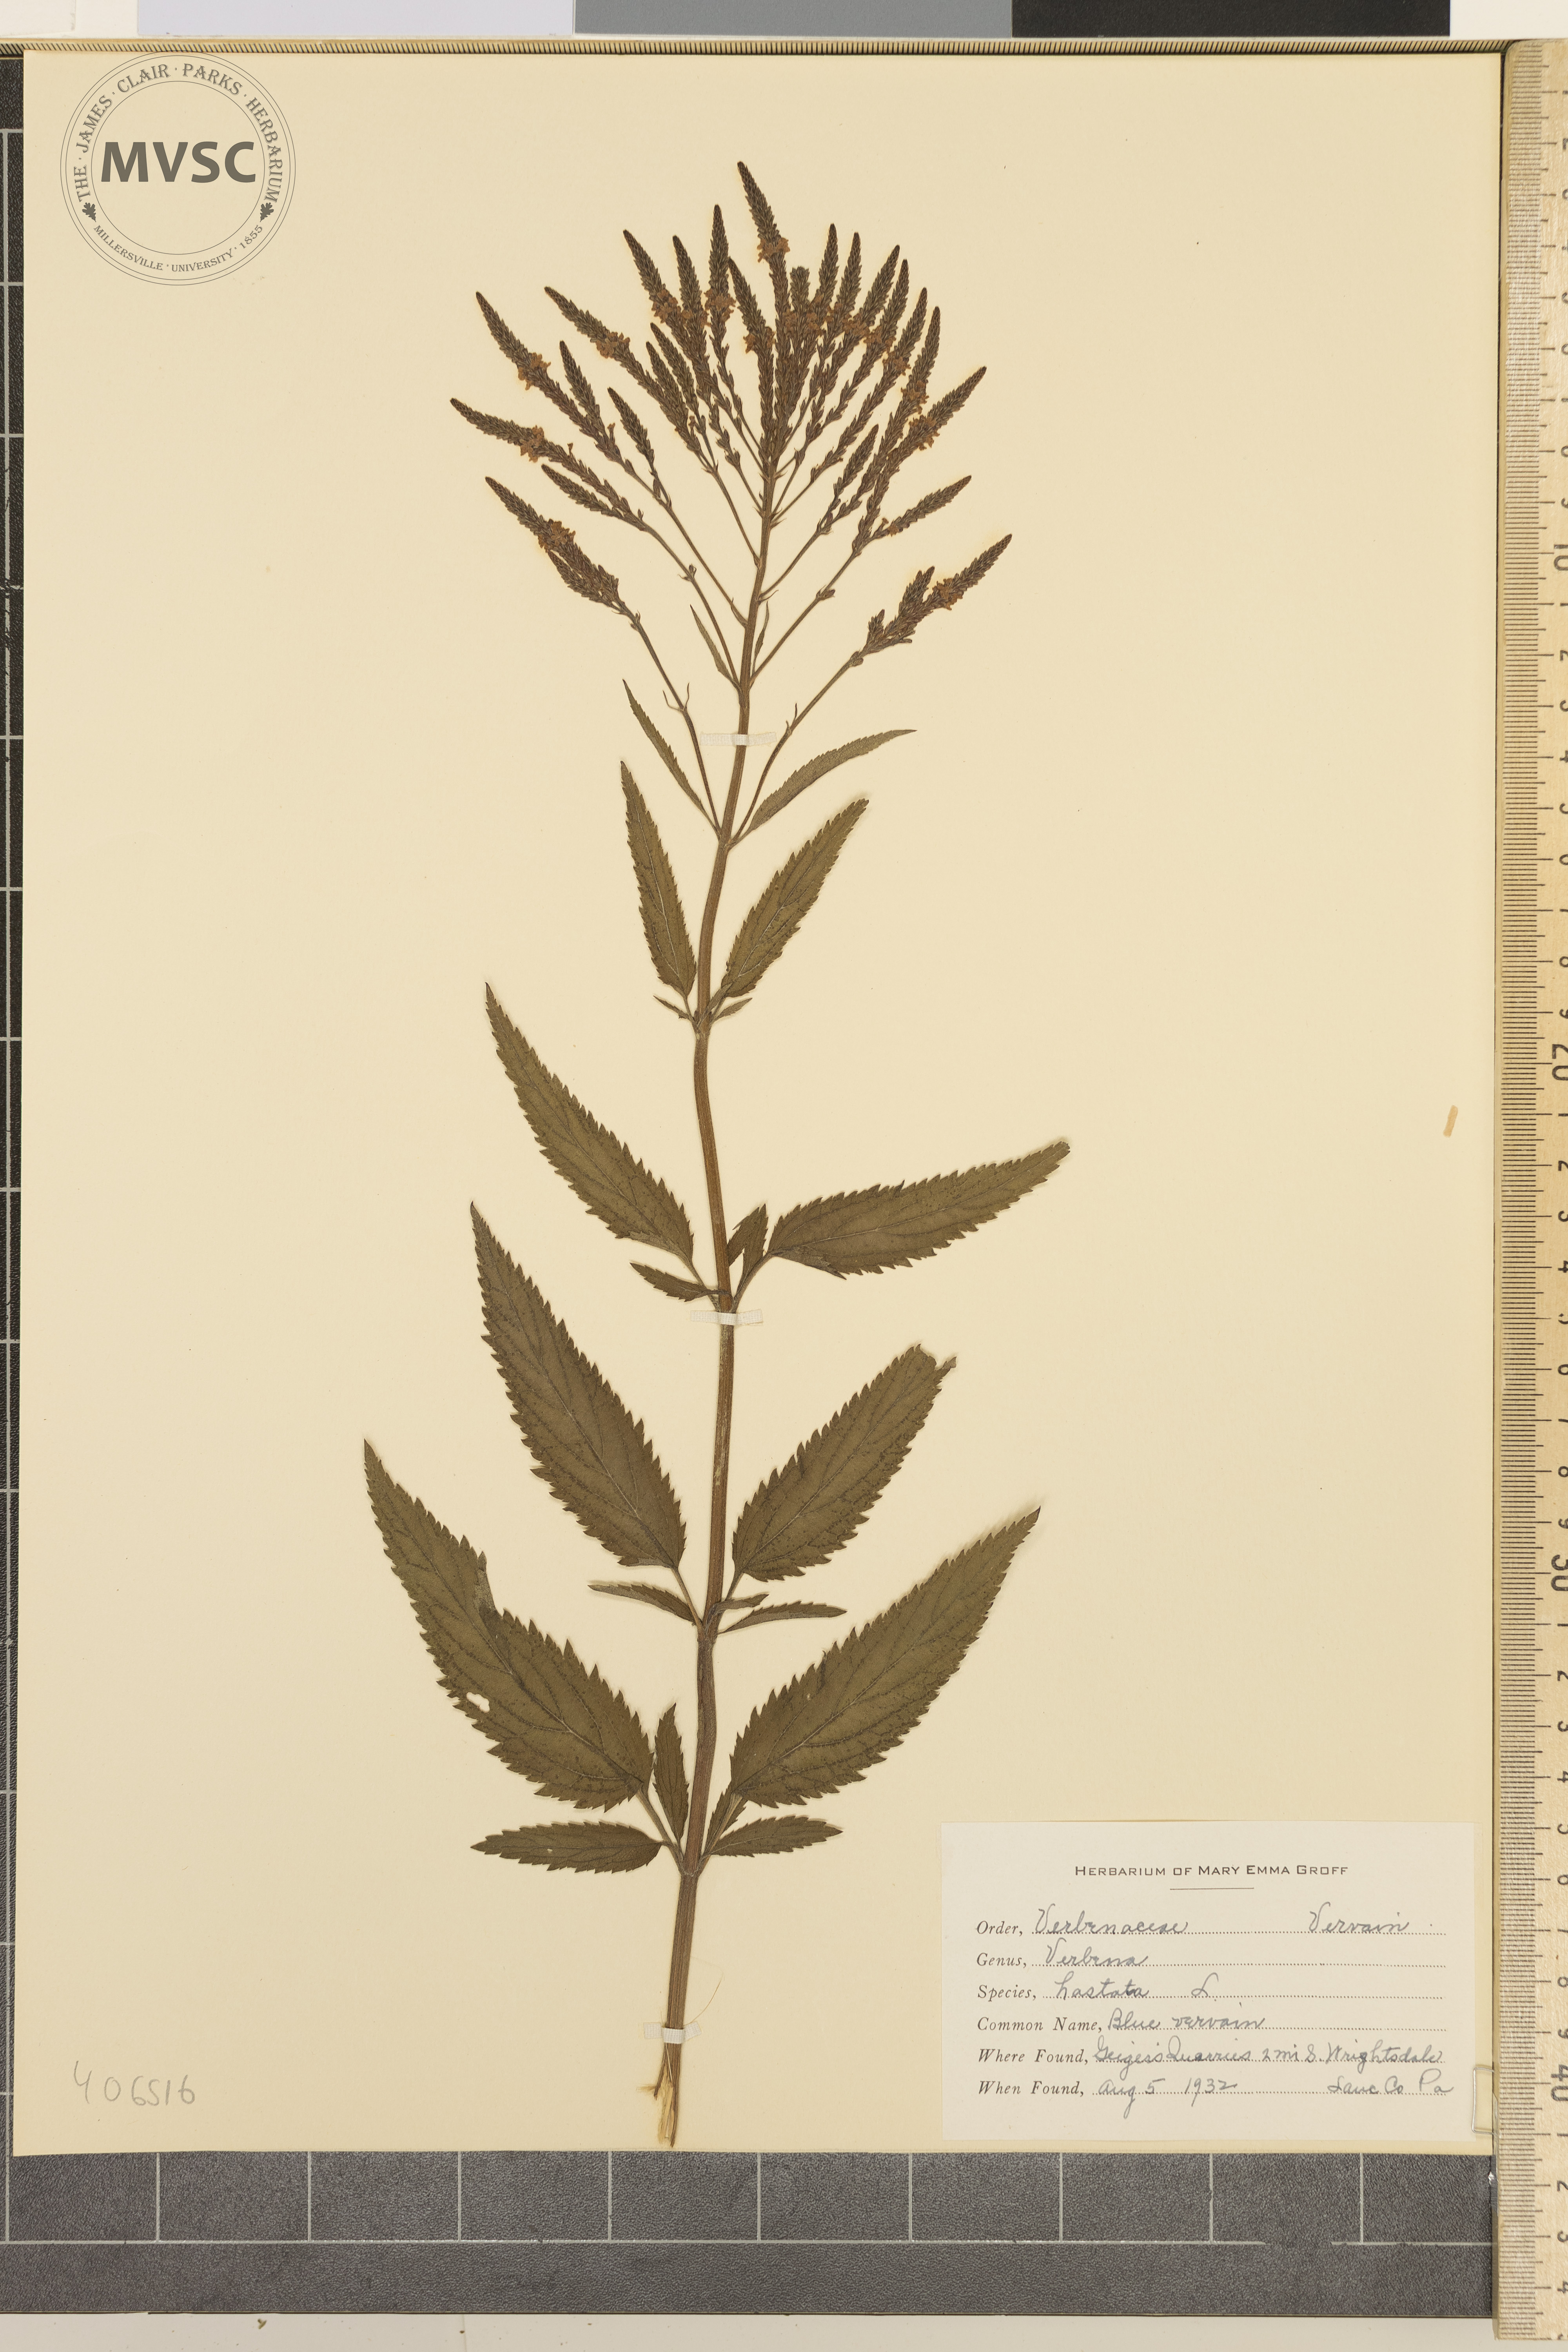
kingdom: Plantae
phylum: Tracheophyta
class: Magnoliopsida
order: Lamiales
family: Verbenaceae
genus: Verbena
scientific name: Verbena hastata
